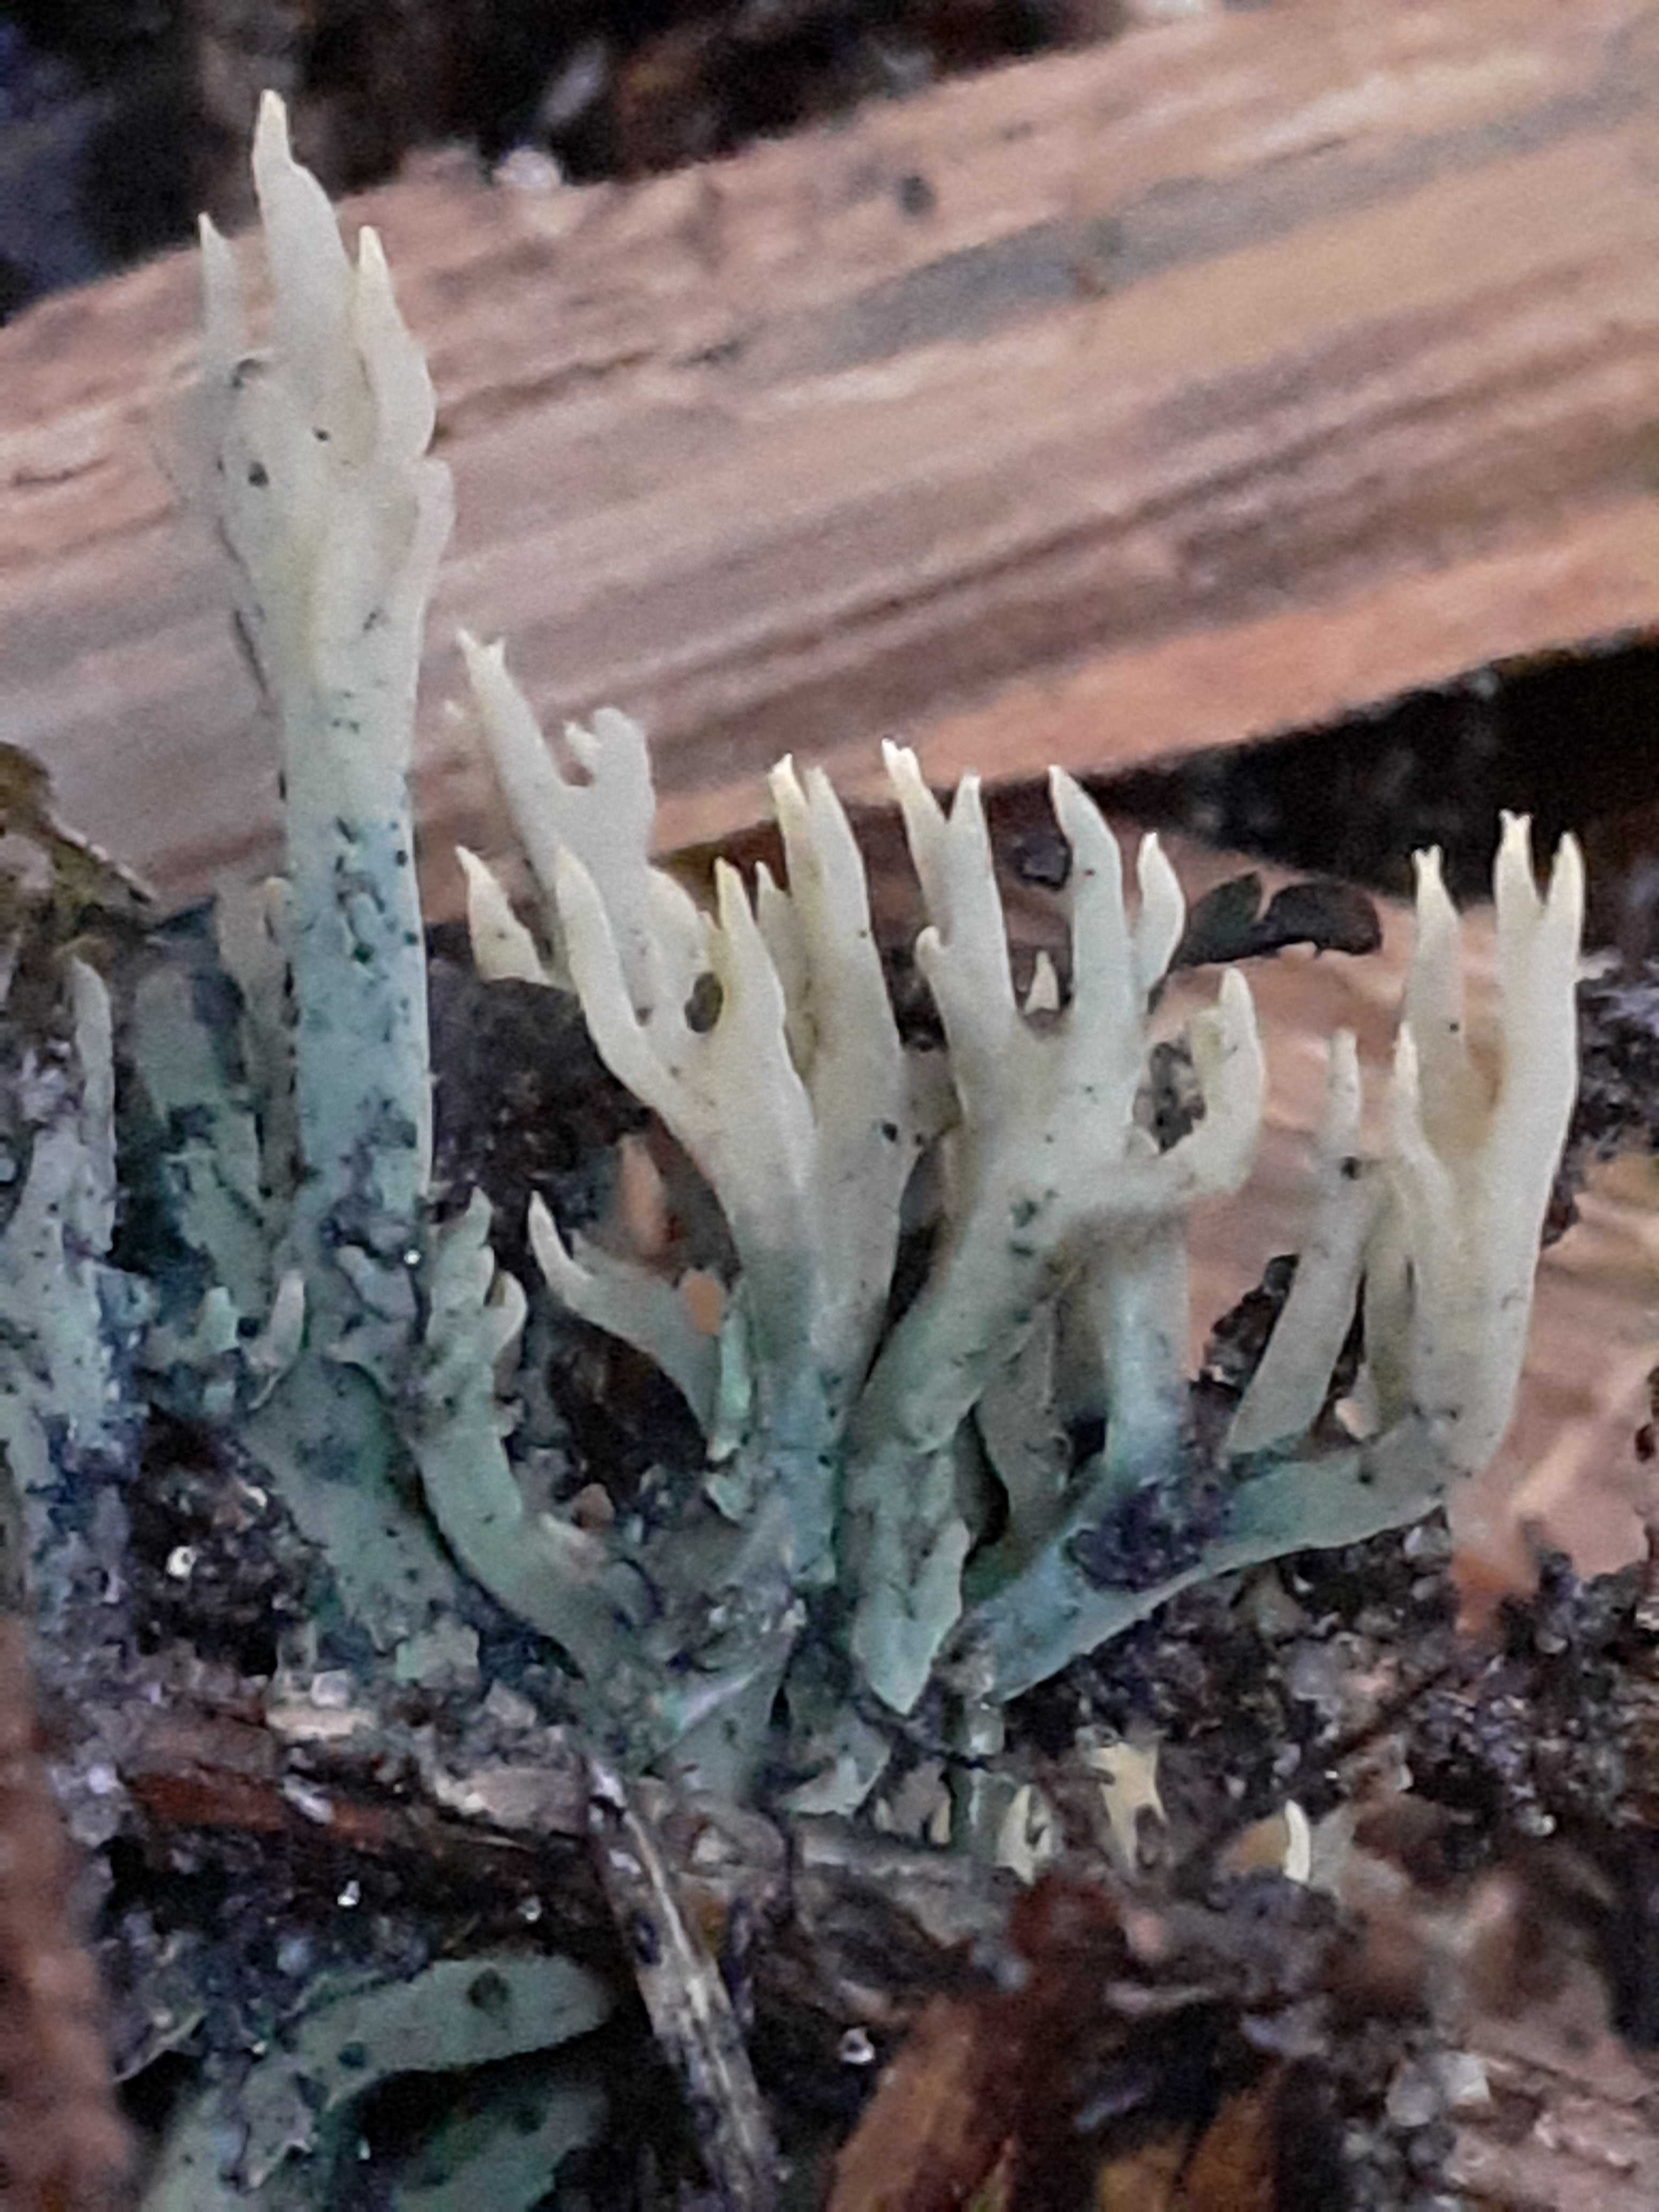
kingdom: Fungi
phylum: Basidiomycota
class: Agaricomycetes
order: Gomphales
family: Gomphaceae
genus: Phaeoclavulina
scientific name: Phaeoclavulina abietina
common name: gulgrøn koralsvamp
